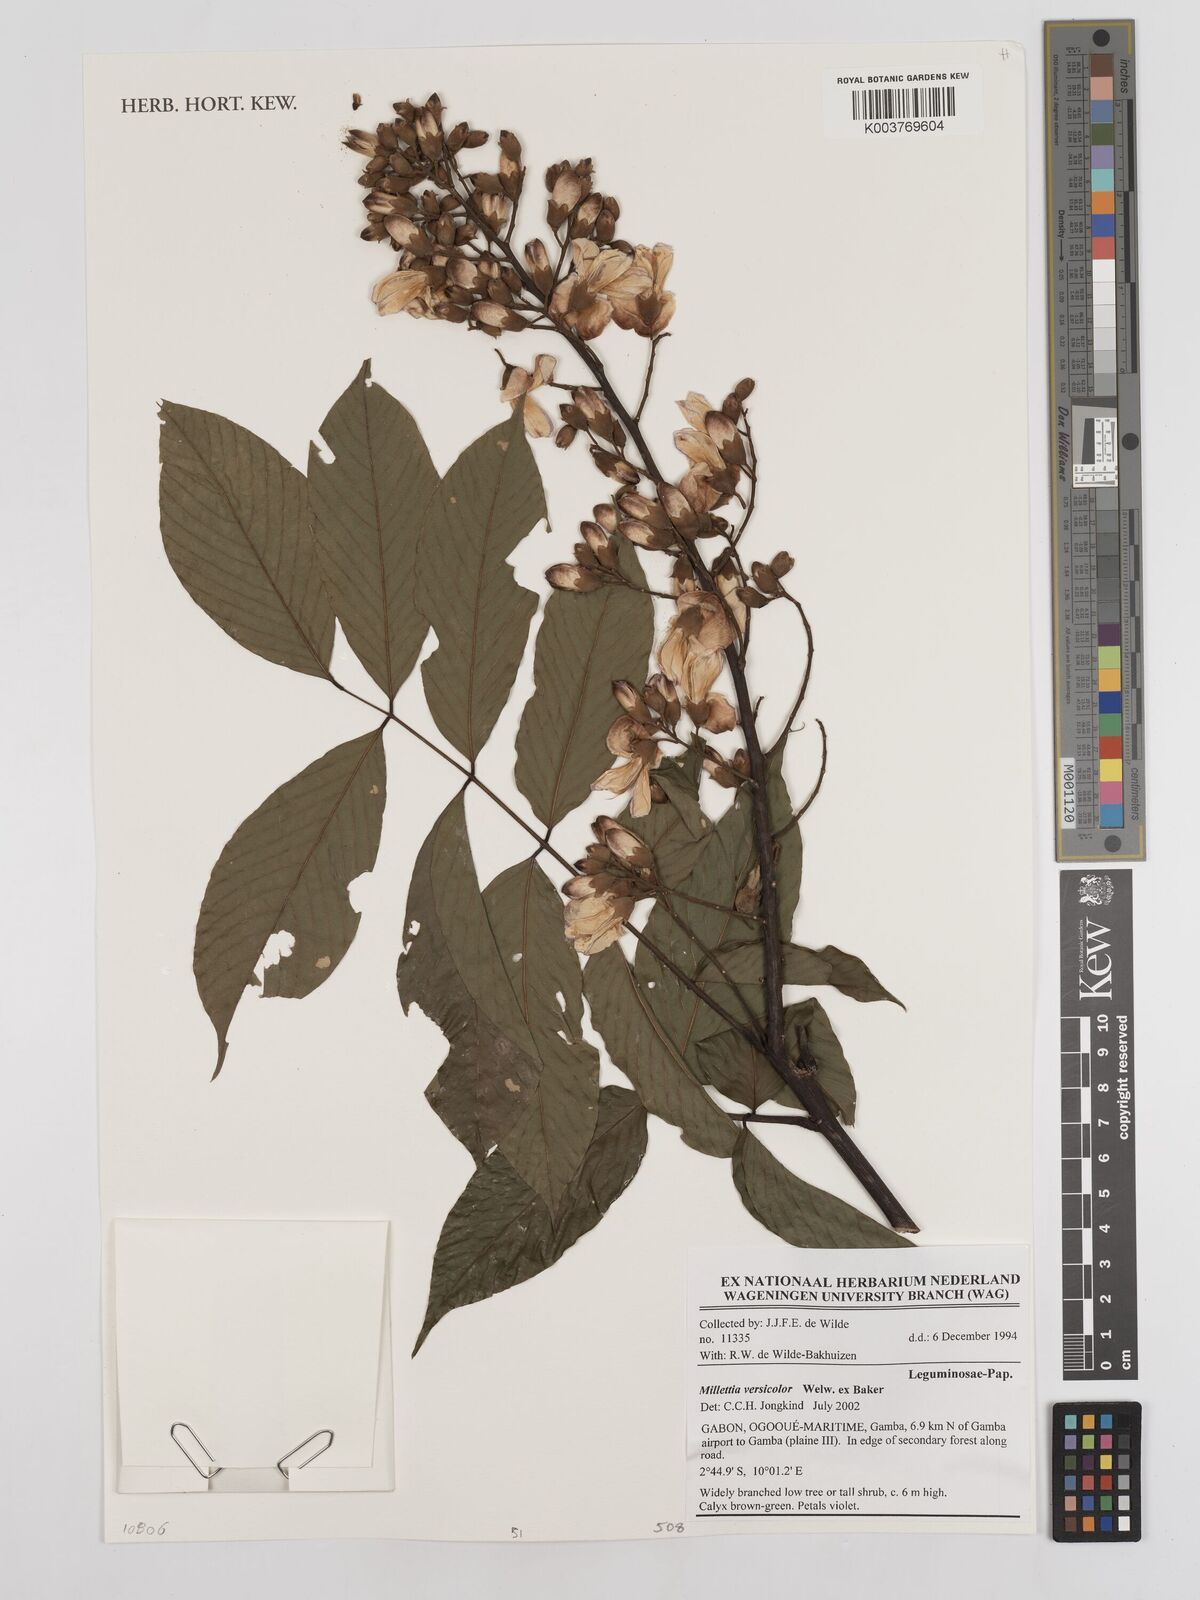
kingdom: Plantae
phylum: Tracheophyta
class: Magnoliopsida
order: Fabales
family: Fabaceae
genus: Millettia
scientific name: Millettia versicolor
